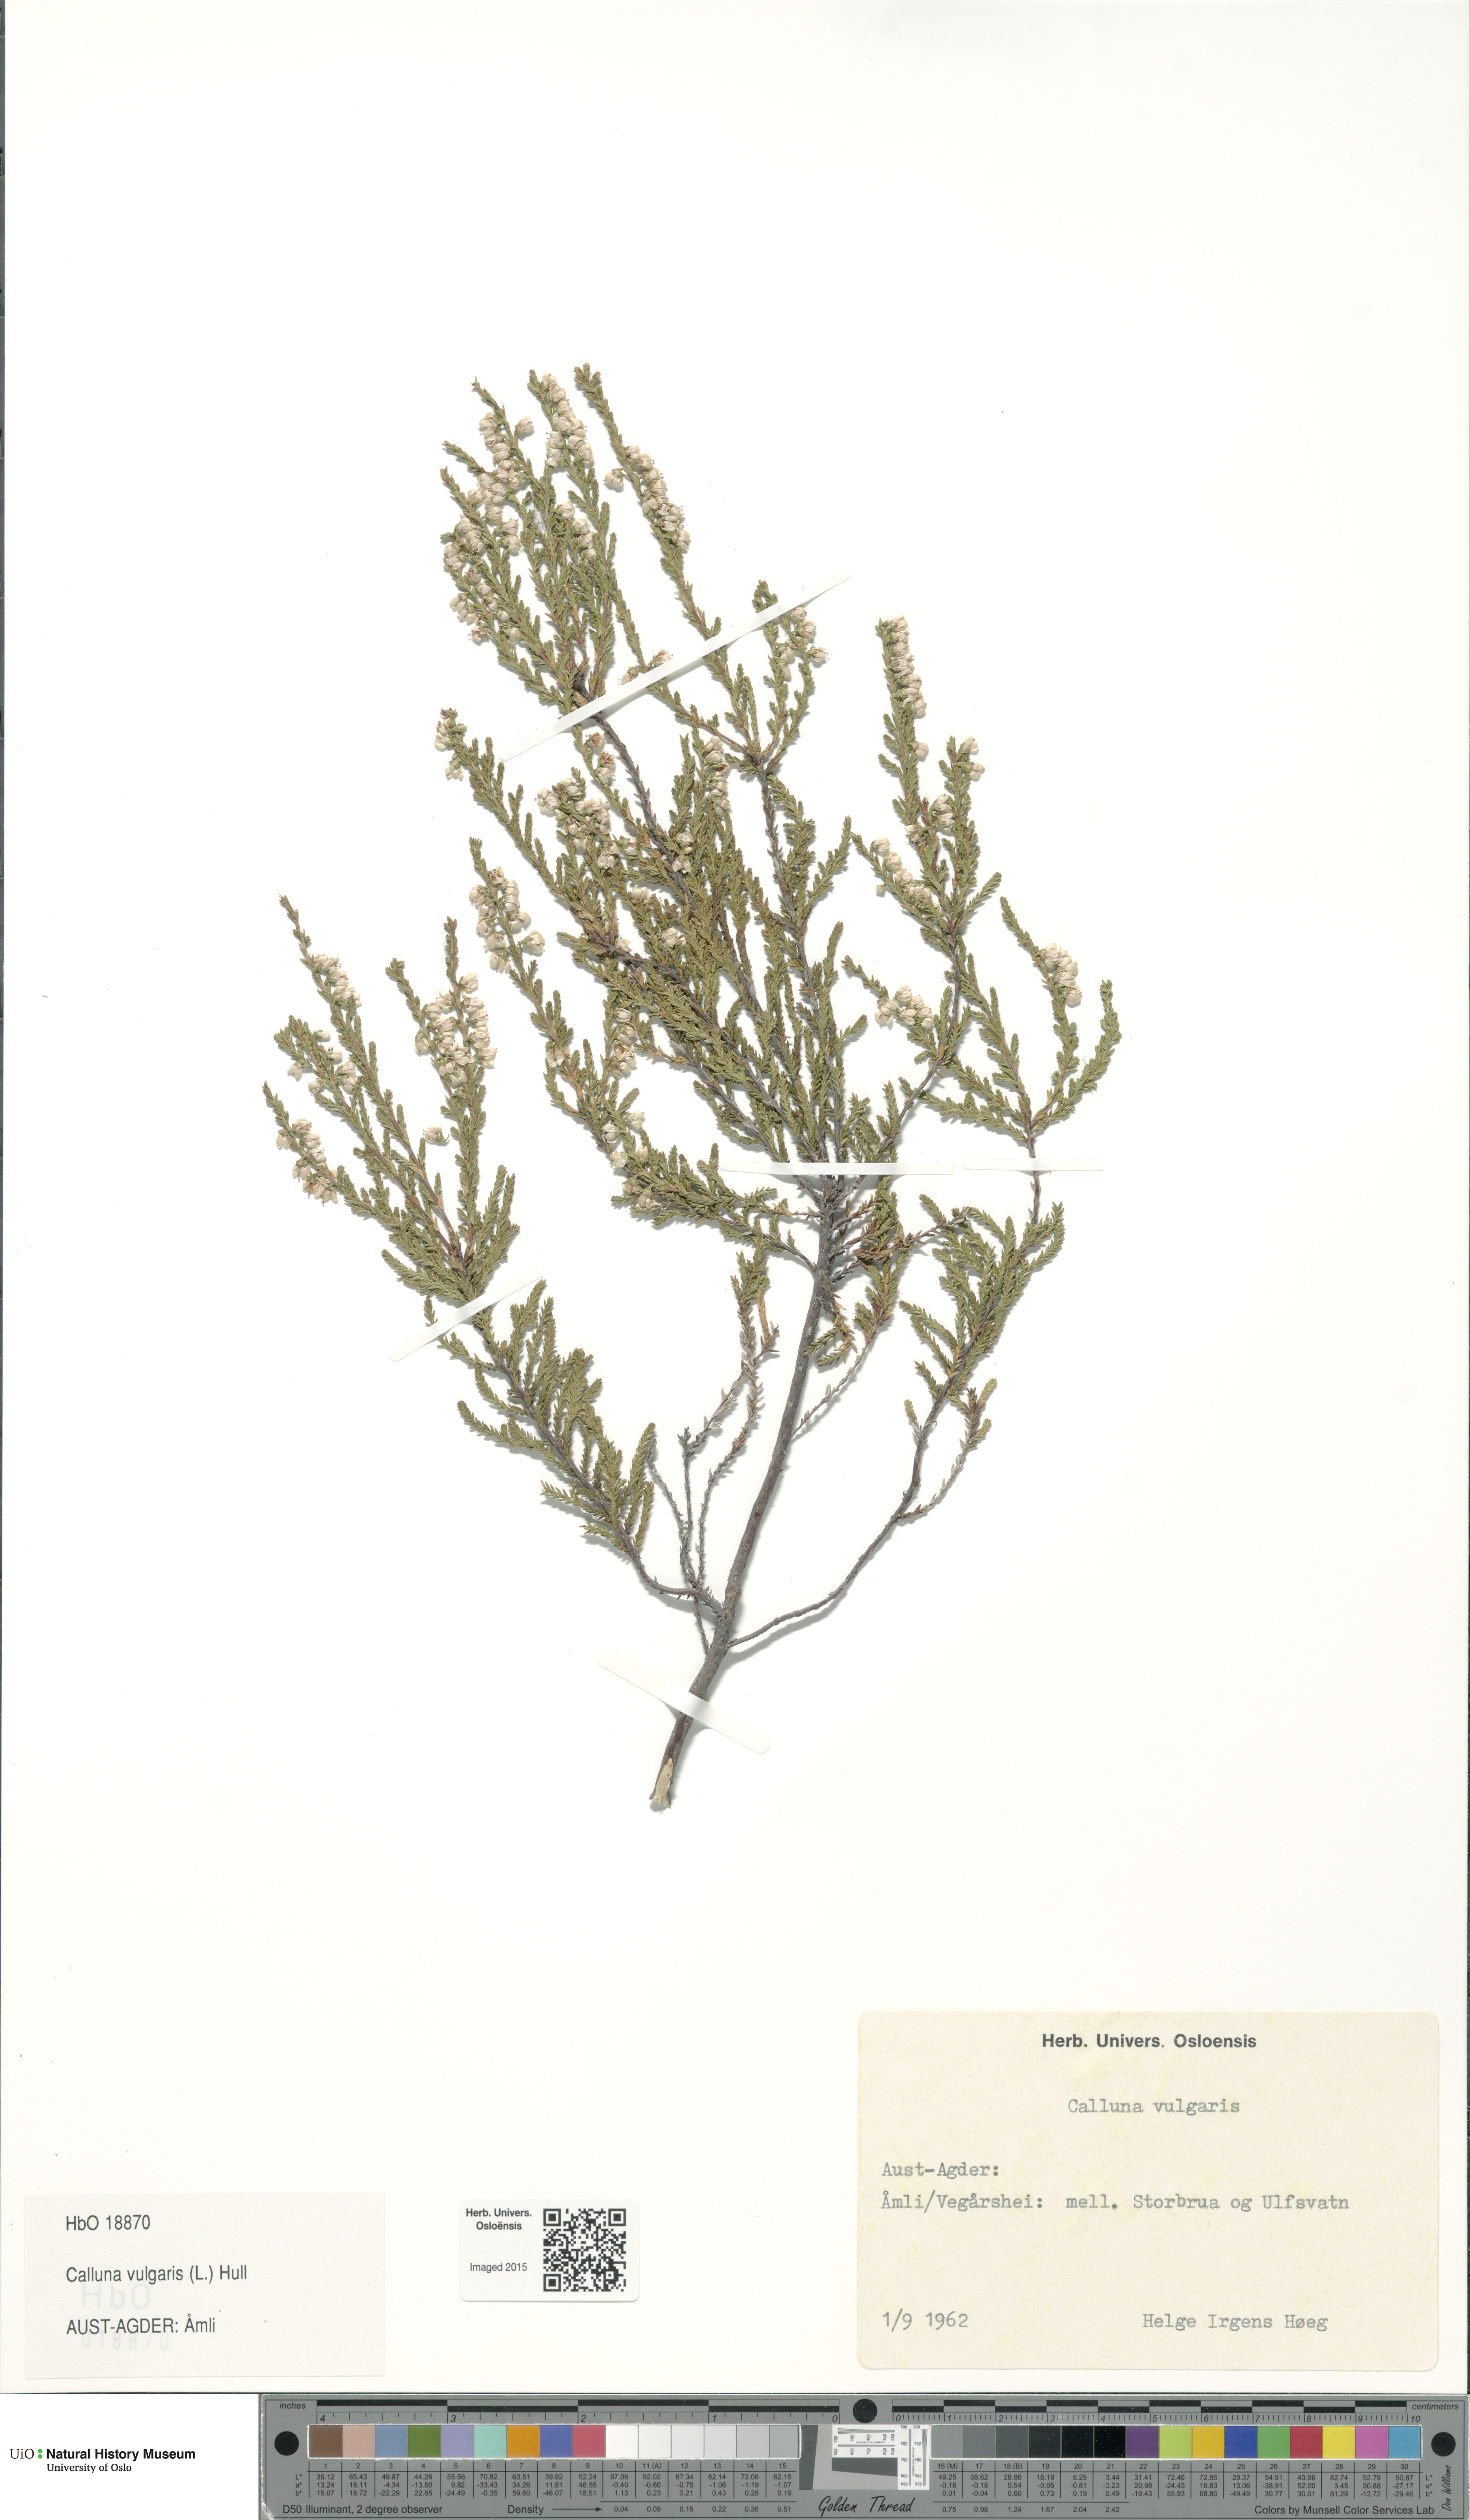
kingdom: Plantae
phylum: Tracheophyta
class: Magnoliopsida
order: Ericales
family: Ericaceae
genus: Calluna
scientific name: Calluna vulgaris
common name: Heather
